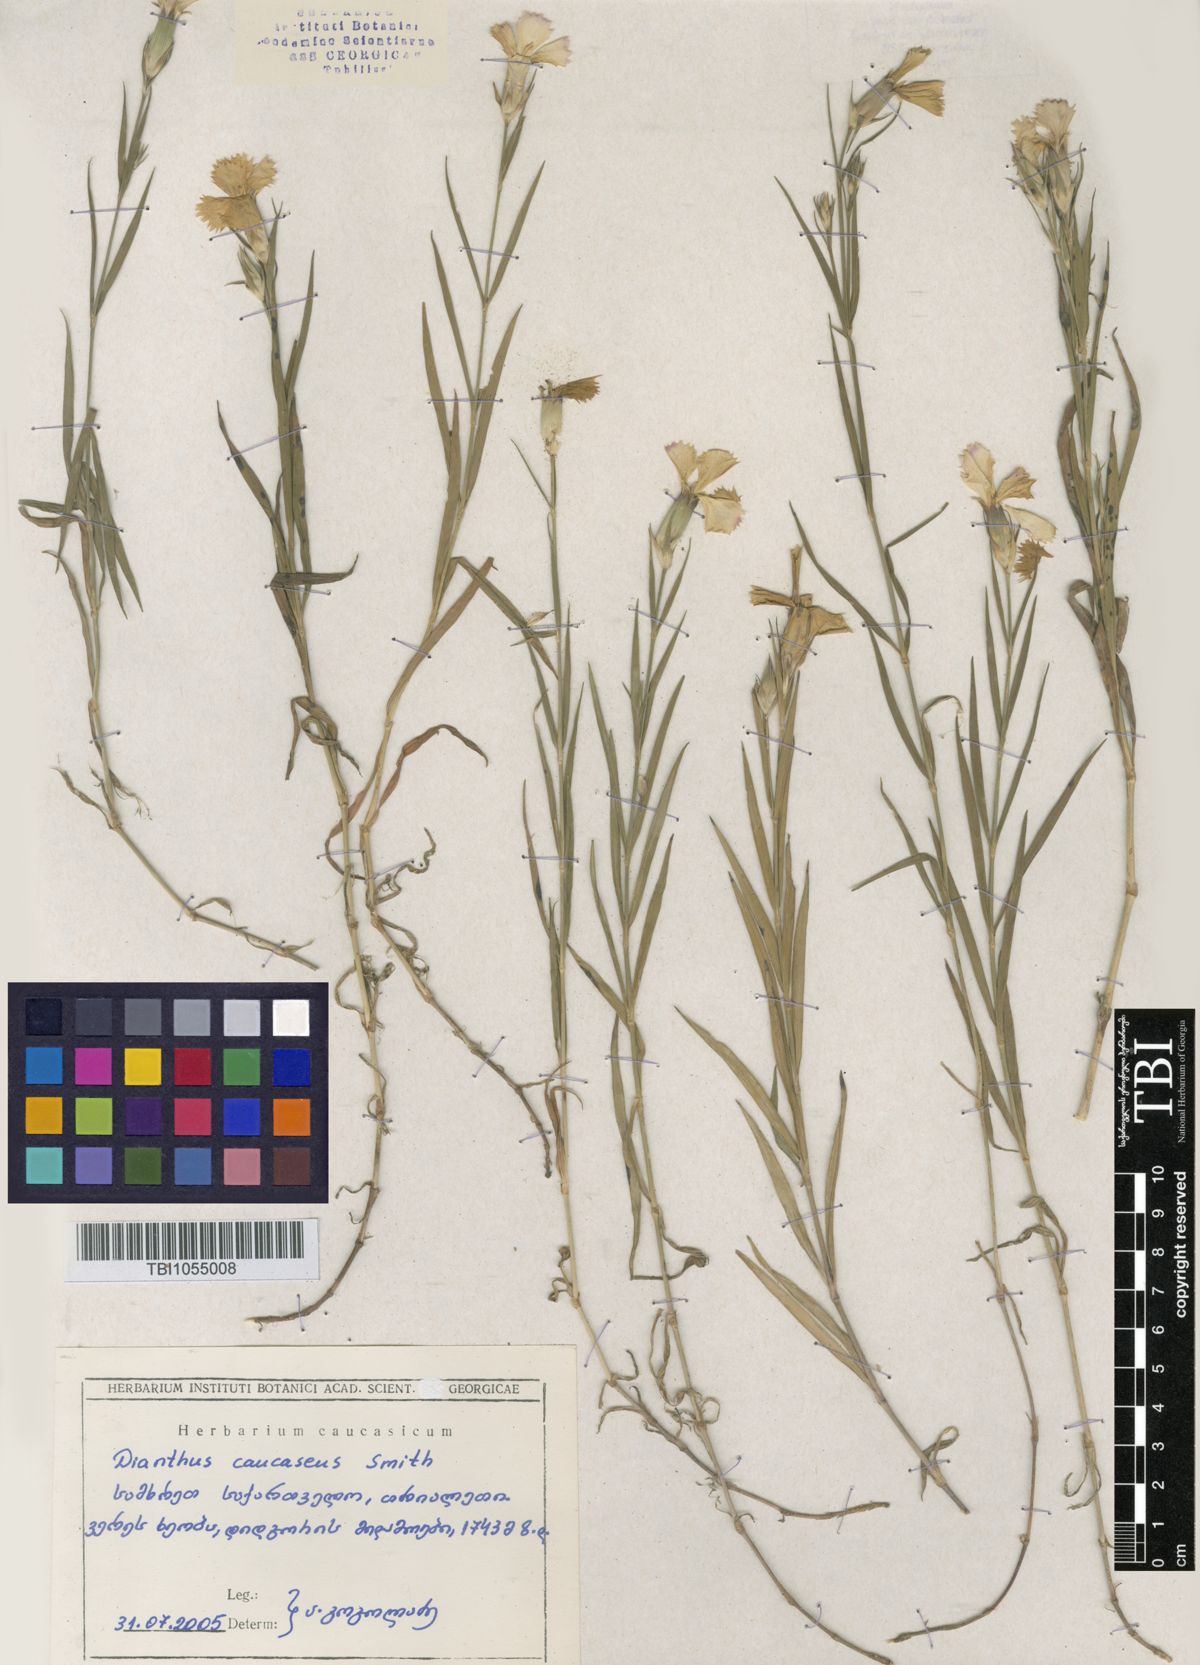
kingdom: Plantae
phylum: Tracheophyta
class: Magnoliopsida
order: Caryophyllales
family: Caryophyllaceae
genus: Dianthus
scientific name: Dianthus caucaseus
